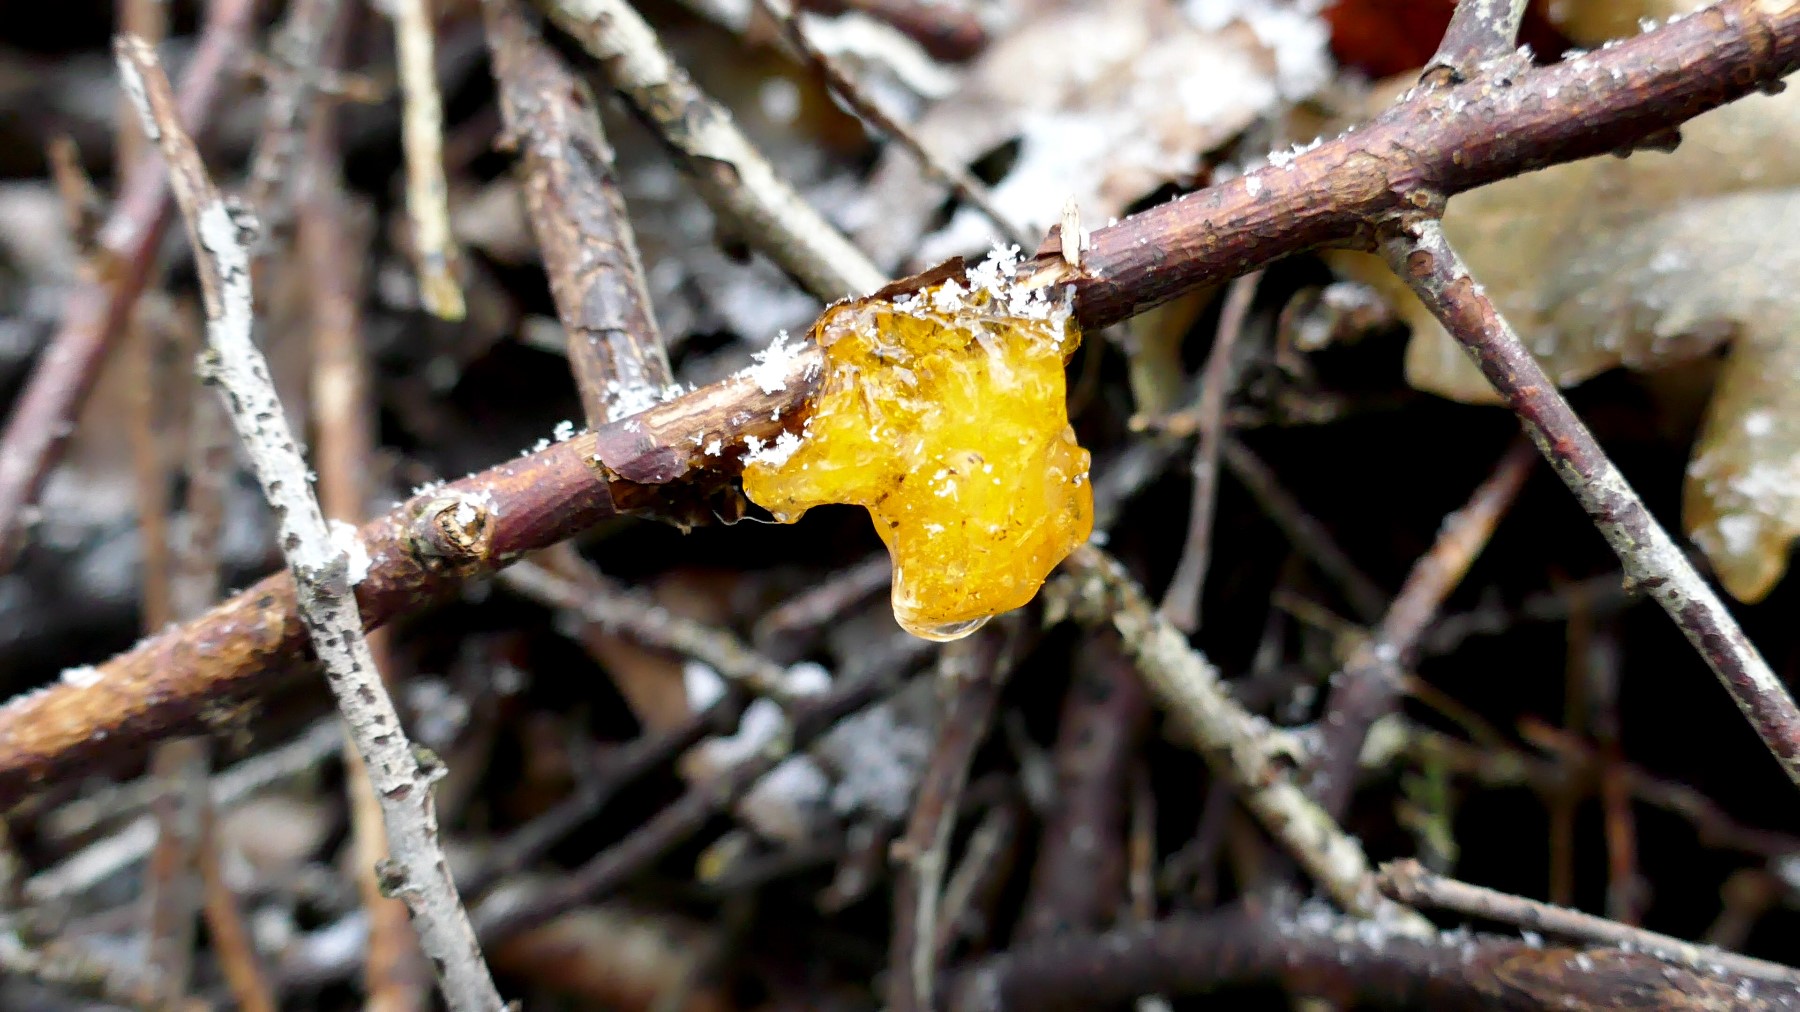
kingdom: Fungi
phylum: Basidiomycota
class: Tremellomycetes
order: Tremellales
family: Tremellaceae
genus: Tremella
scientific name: Tremella mesenterica
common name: gul bævresvamp
